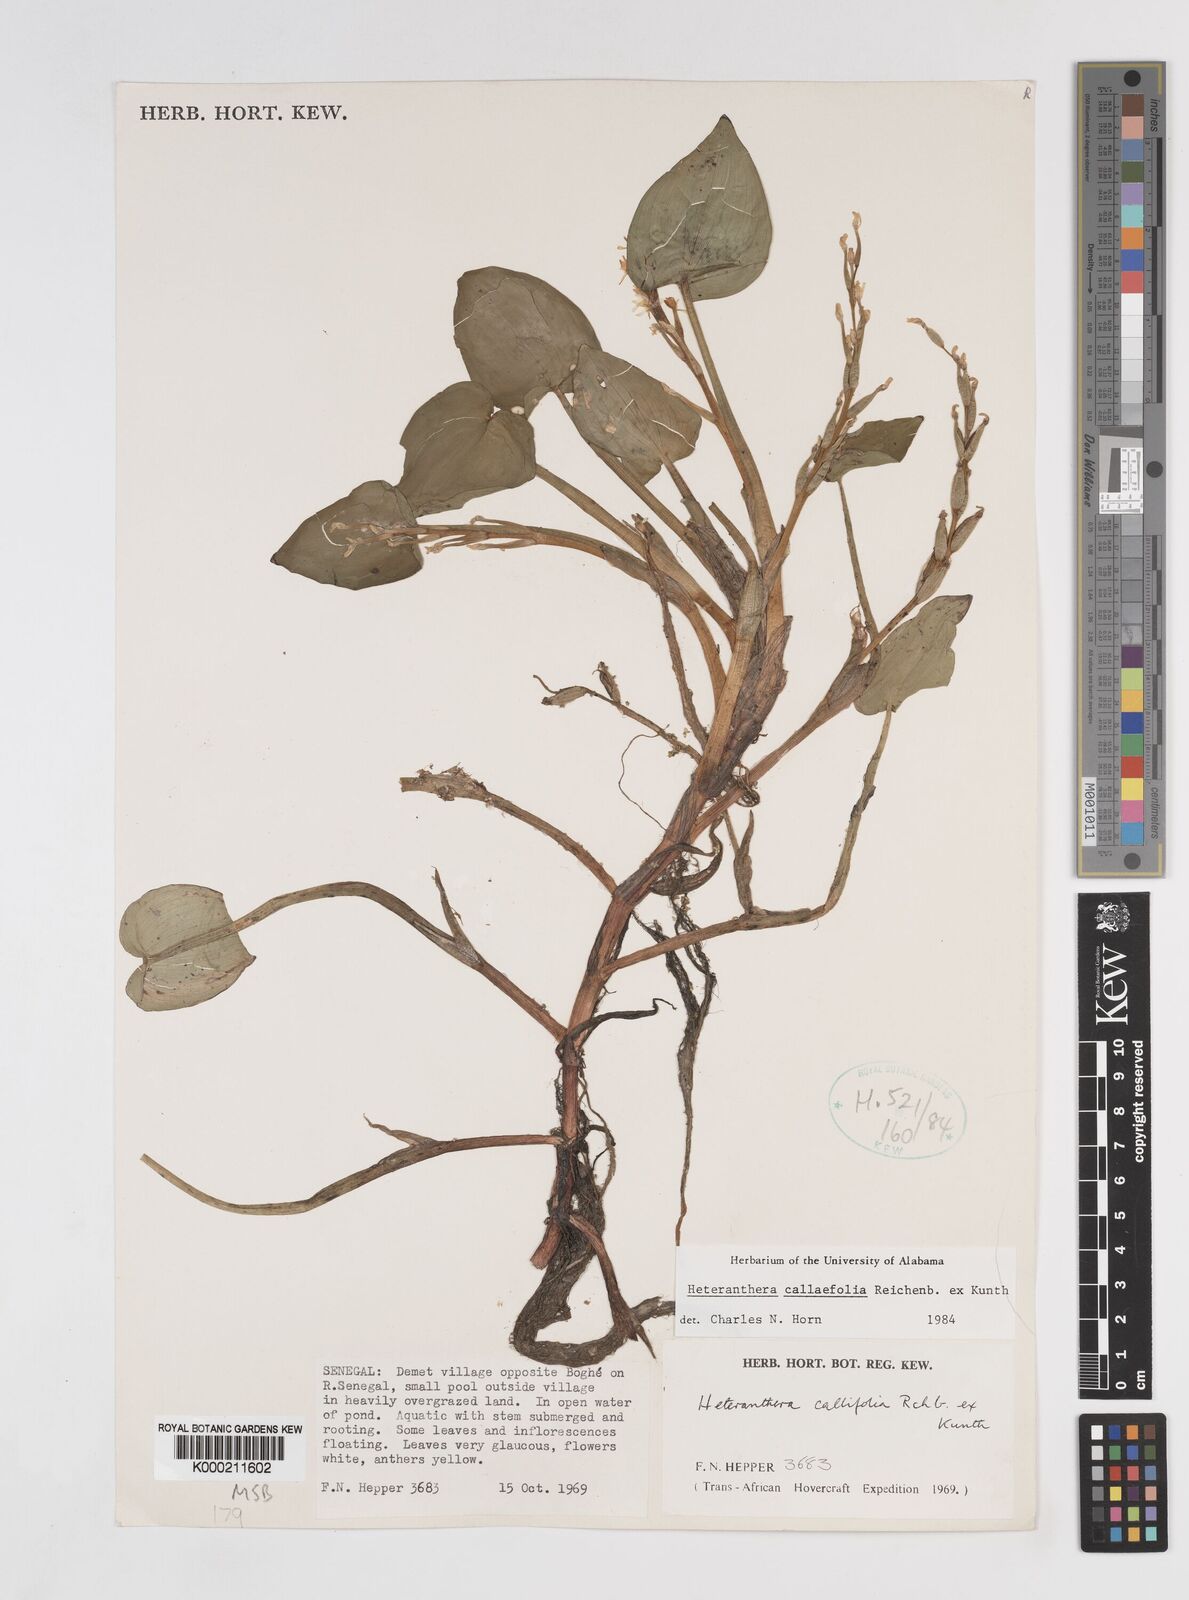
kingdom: Plantae
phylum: Tracheophyta
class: Liliopsida
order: Commelinales
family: Pontederiaceae
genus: Heteranthera
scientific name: Heteranthera callifolia
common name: Mud plantain
